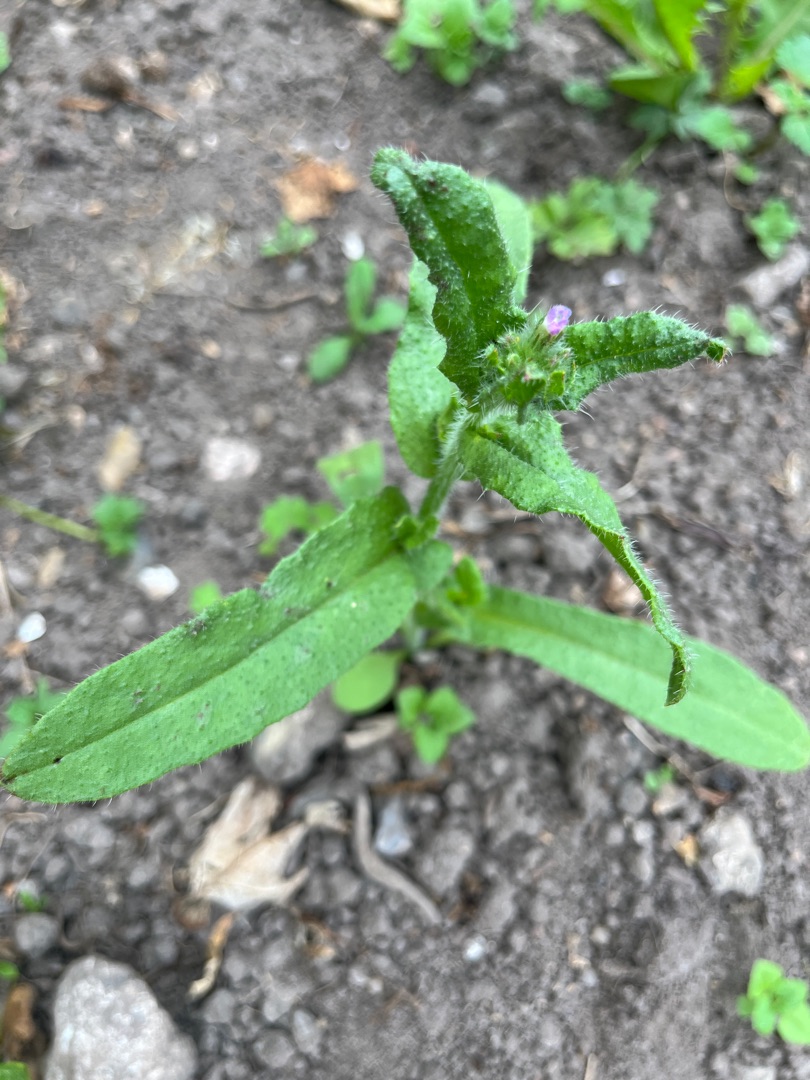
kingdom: Plantae
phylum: Tracheophyta
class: Magnoliopsida
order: Boraginales
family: Boraginaceae
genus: Lycopsis
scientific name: Lycopsis arvensis
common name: Krumhals
